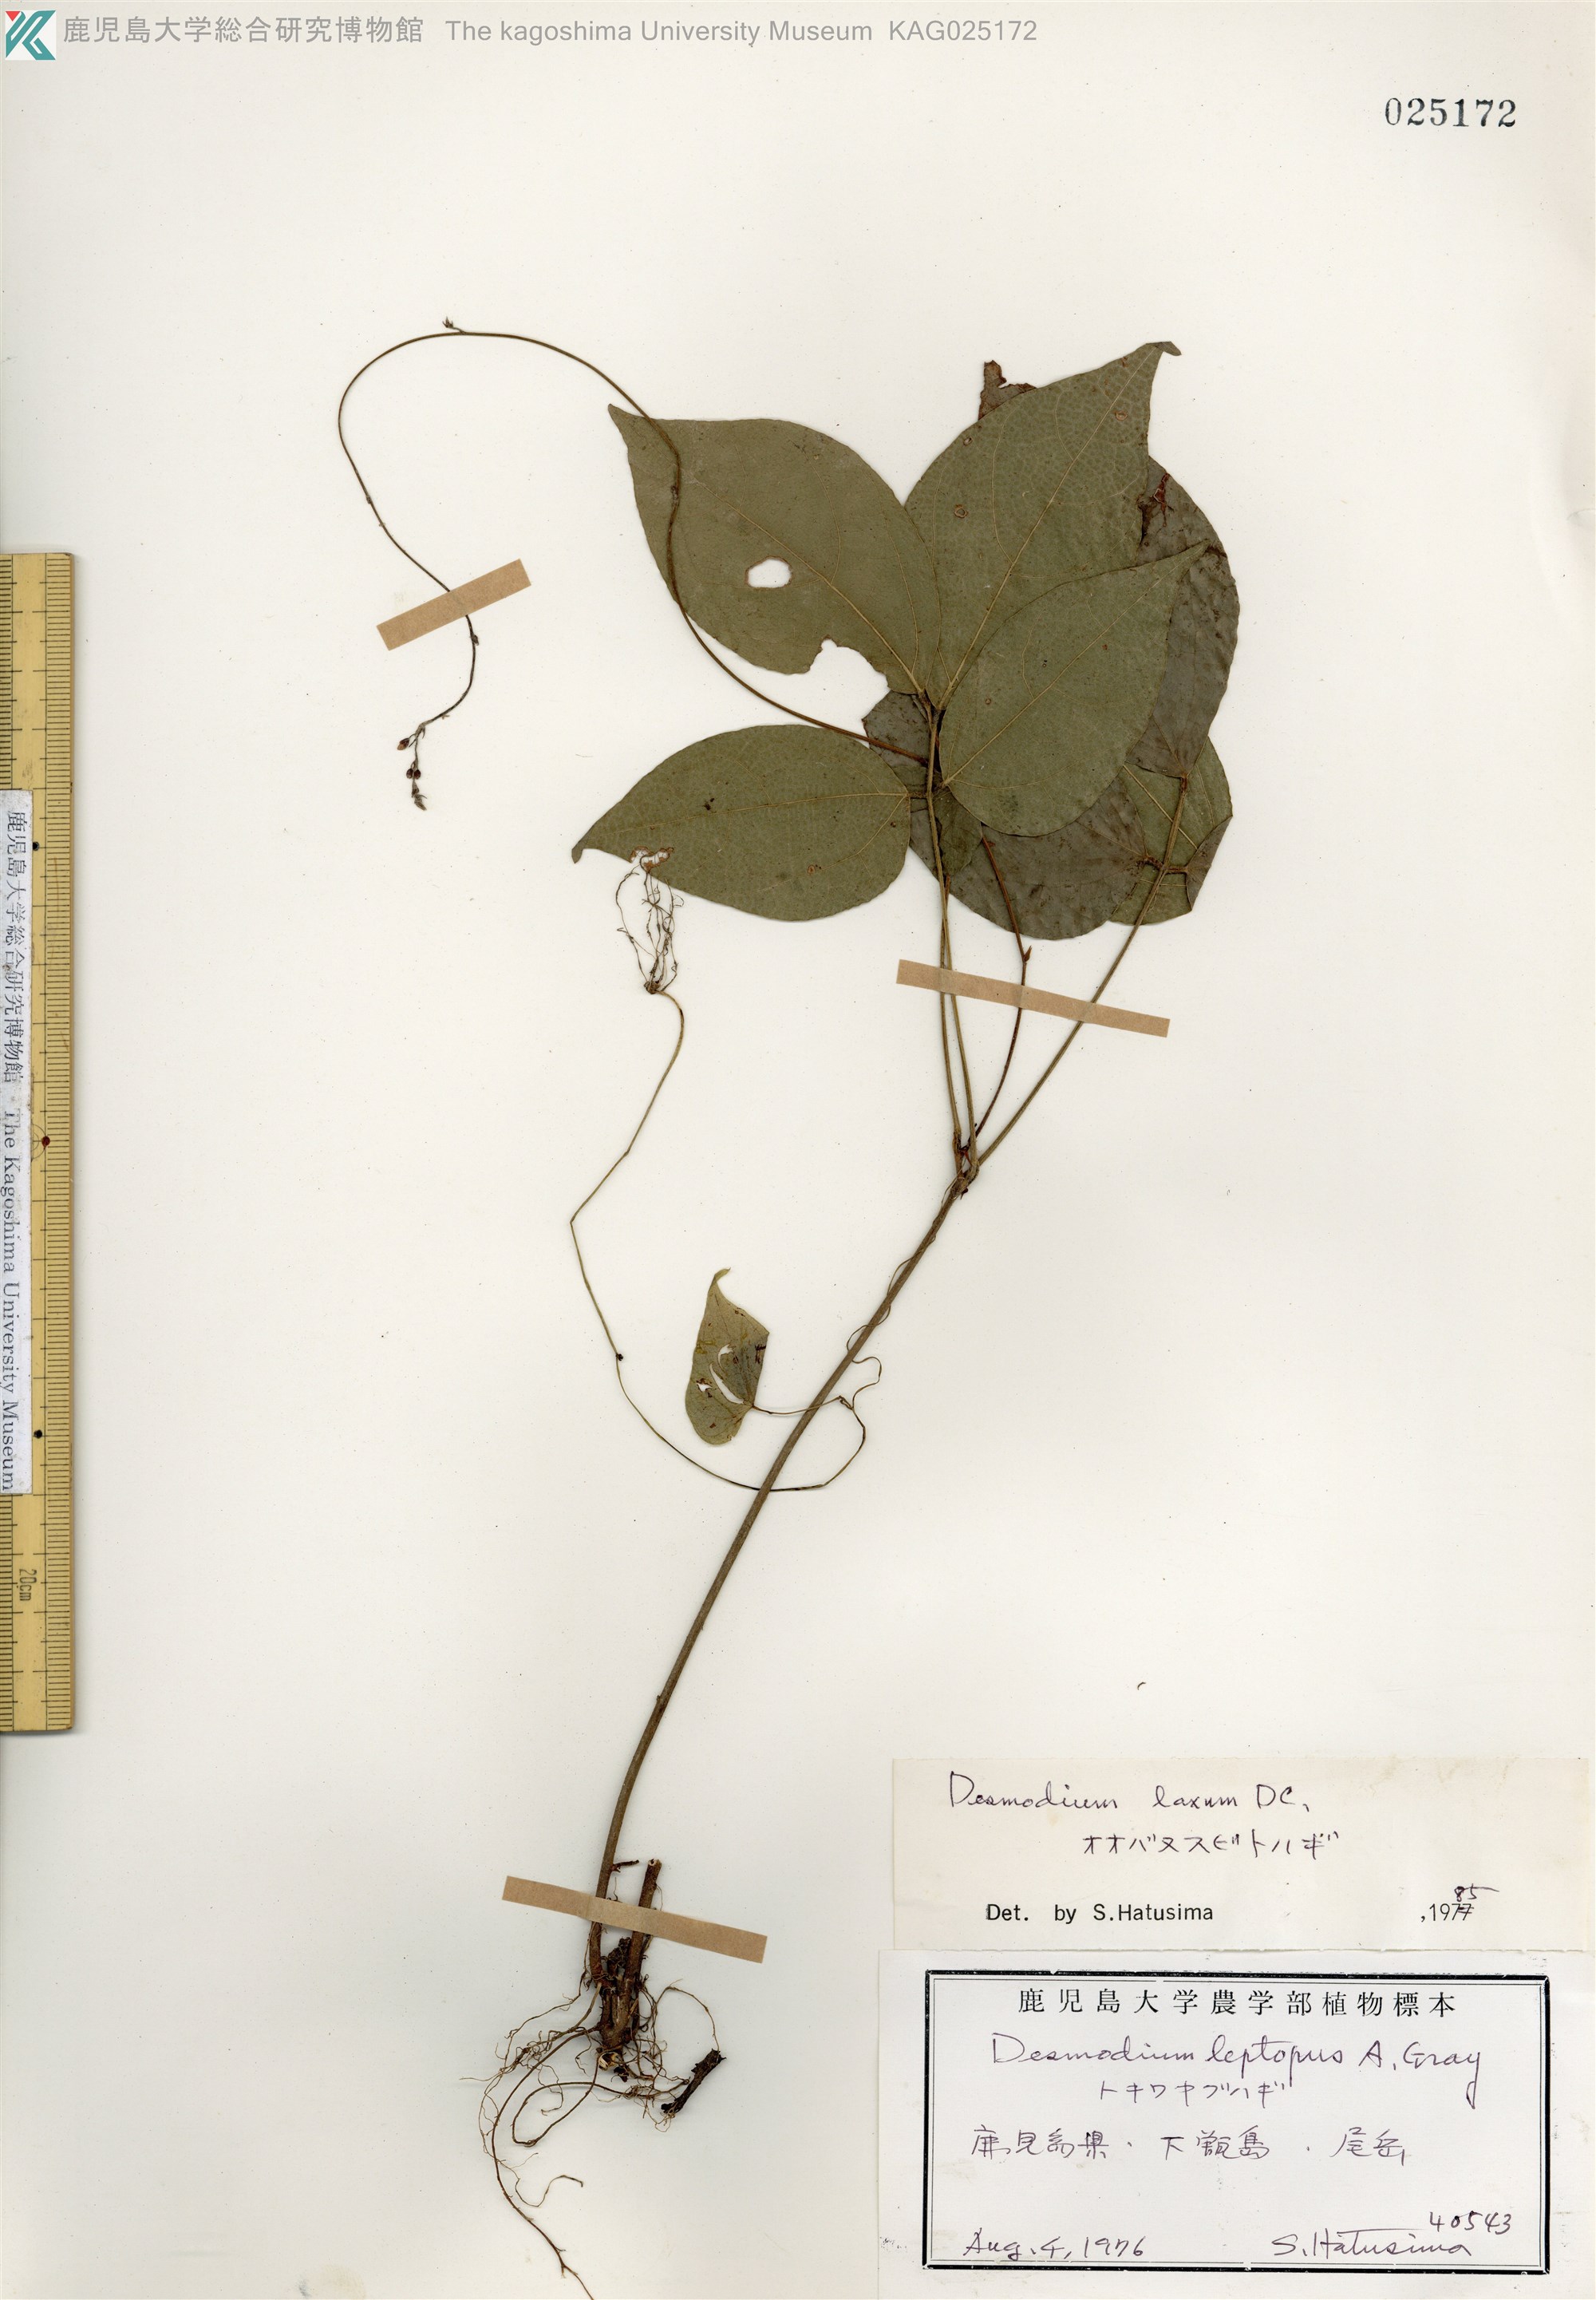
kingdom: Plantae
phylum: Tracheophyta
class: Magnoliopsida
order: Fabales
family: Fabaceae
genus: Desmodium
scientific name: Desmodium laxum
